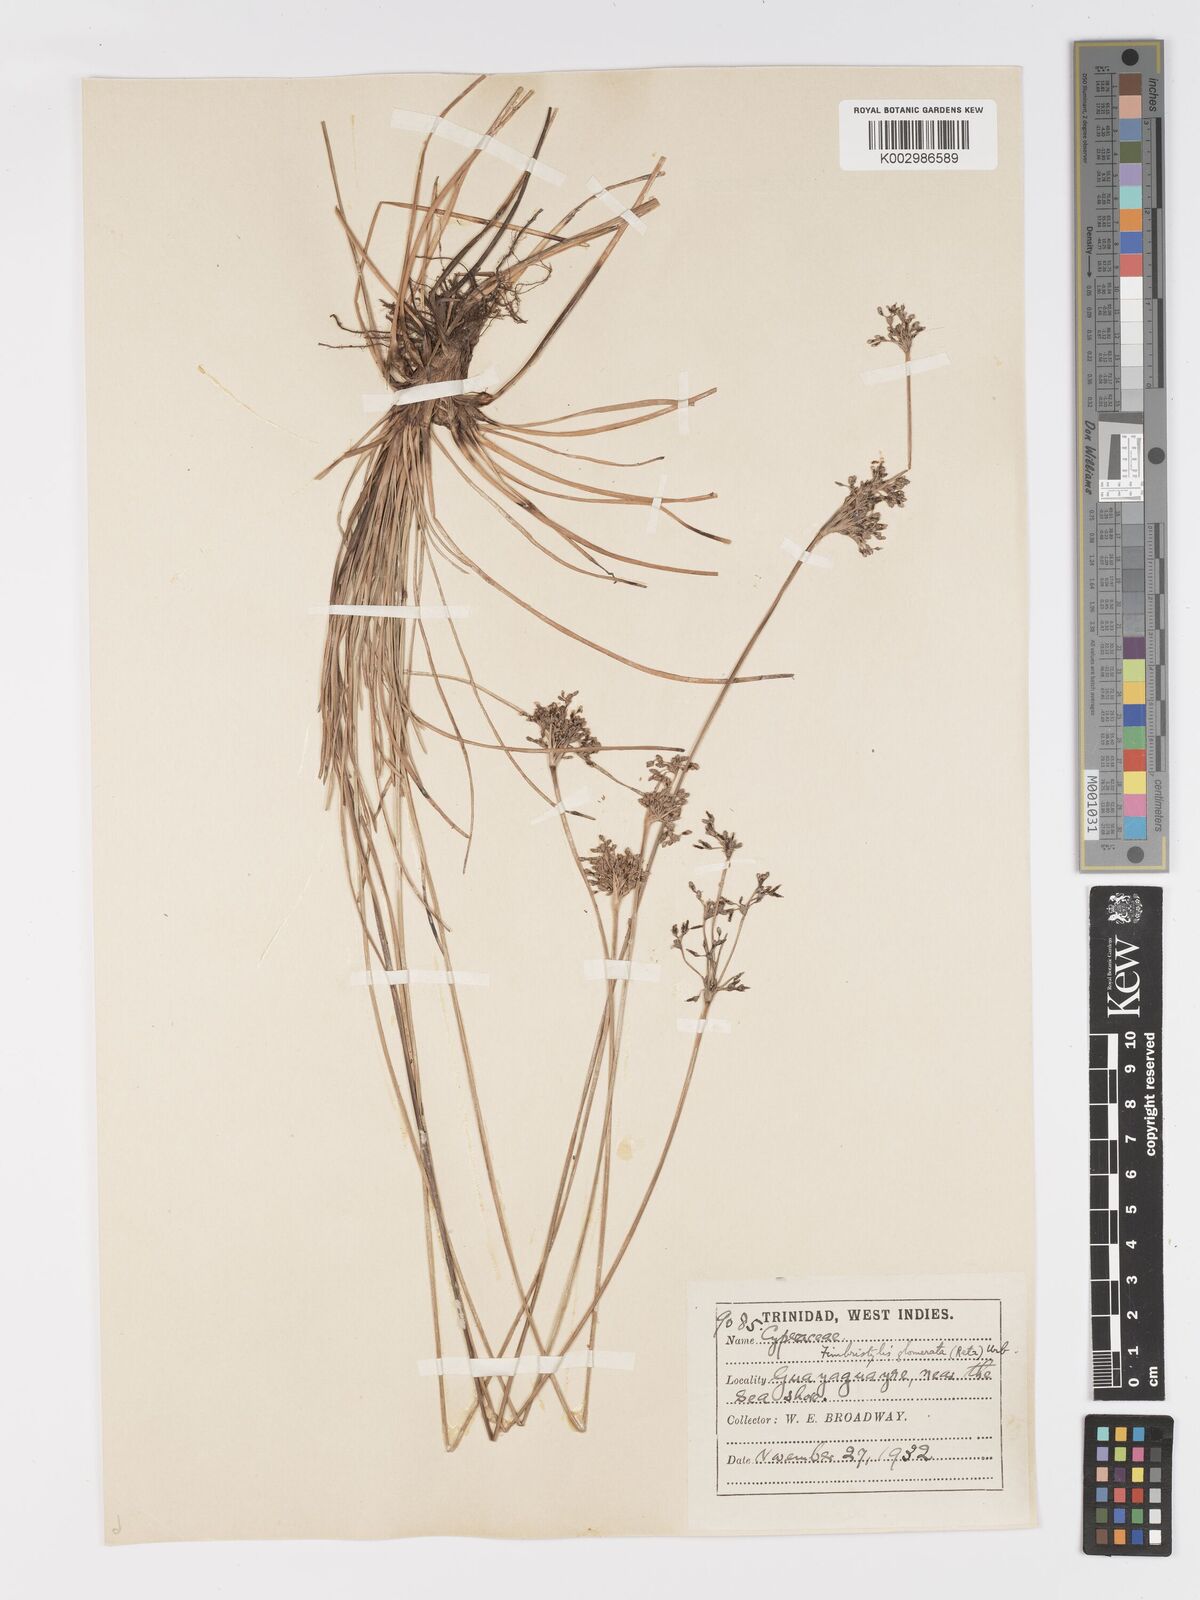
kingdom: Plantae
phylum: Tracheophyta
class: Liliopsida
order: Poales
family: Cyperaceae
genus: Fimbristylis
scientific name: Fimbristylis cymosa
